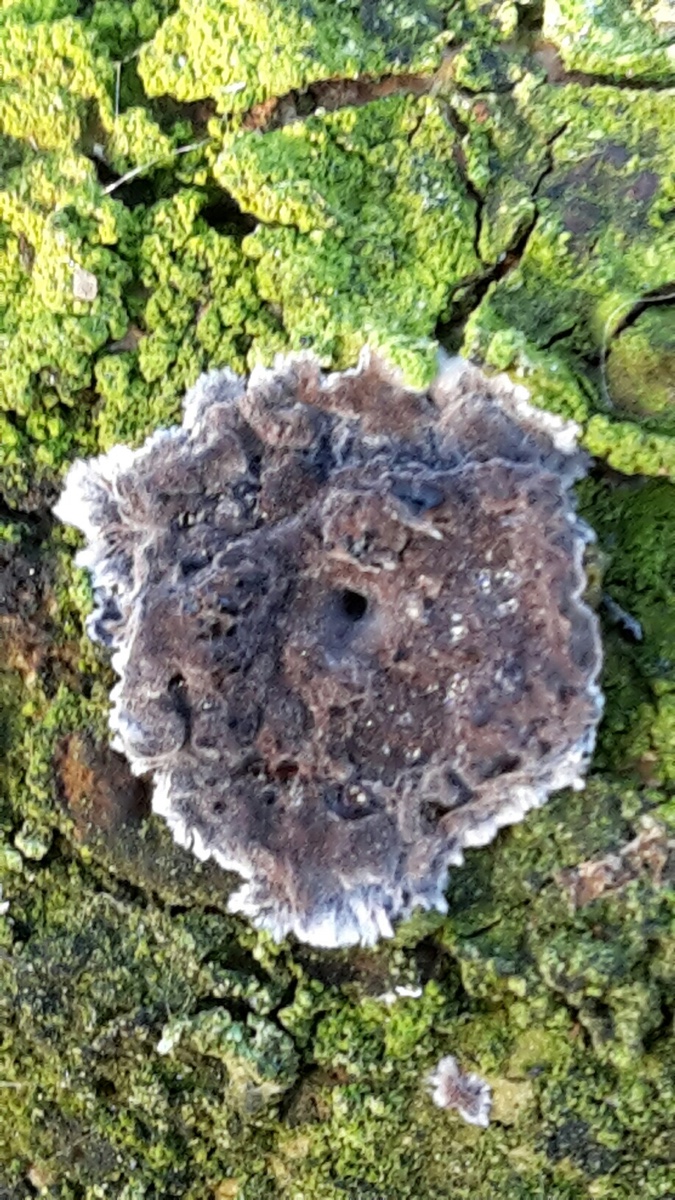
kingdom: Fungi
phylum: Basidiomycota
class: Agaricomycetes
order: Russulales
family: Peniophoraceae
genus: Peniophora
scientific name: Peniophora
